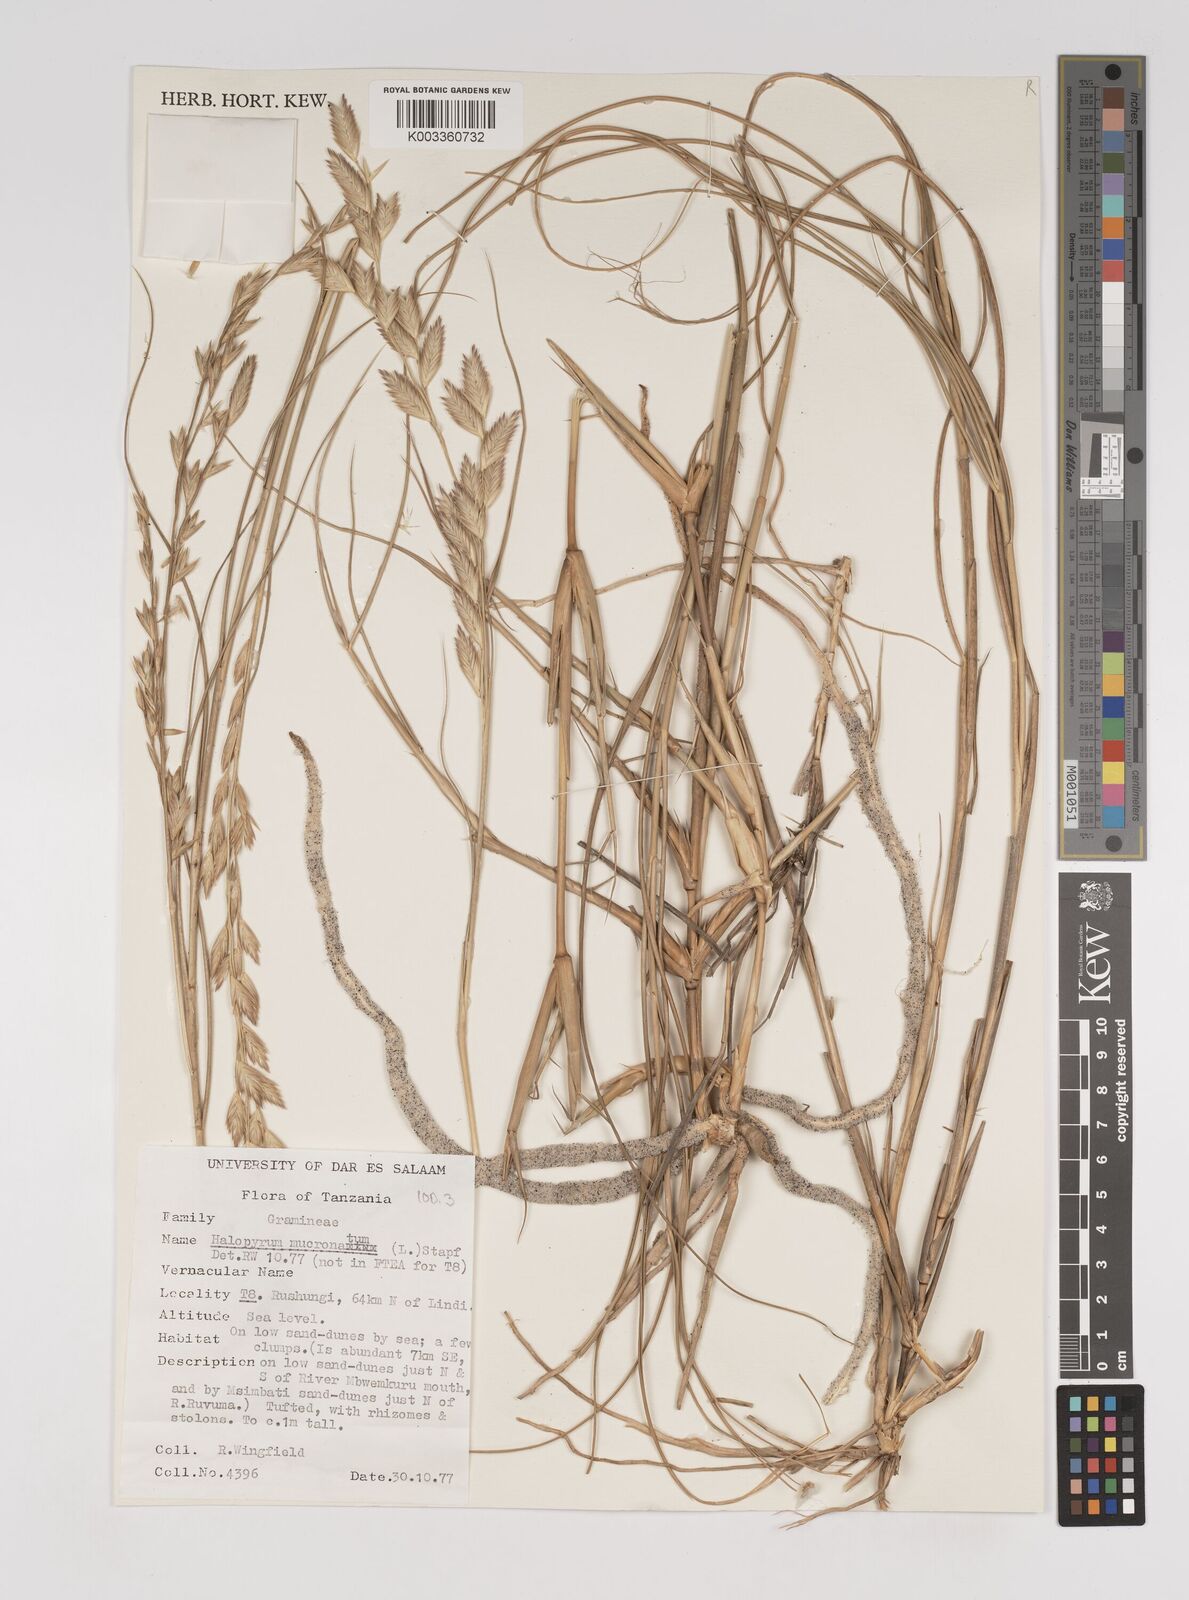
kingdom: Plantae
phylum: Tracheophyta
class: Liliopsida
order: Poales
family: Poaceae
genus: Halopyrum
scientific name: Halopyrum mucronatum
